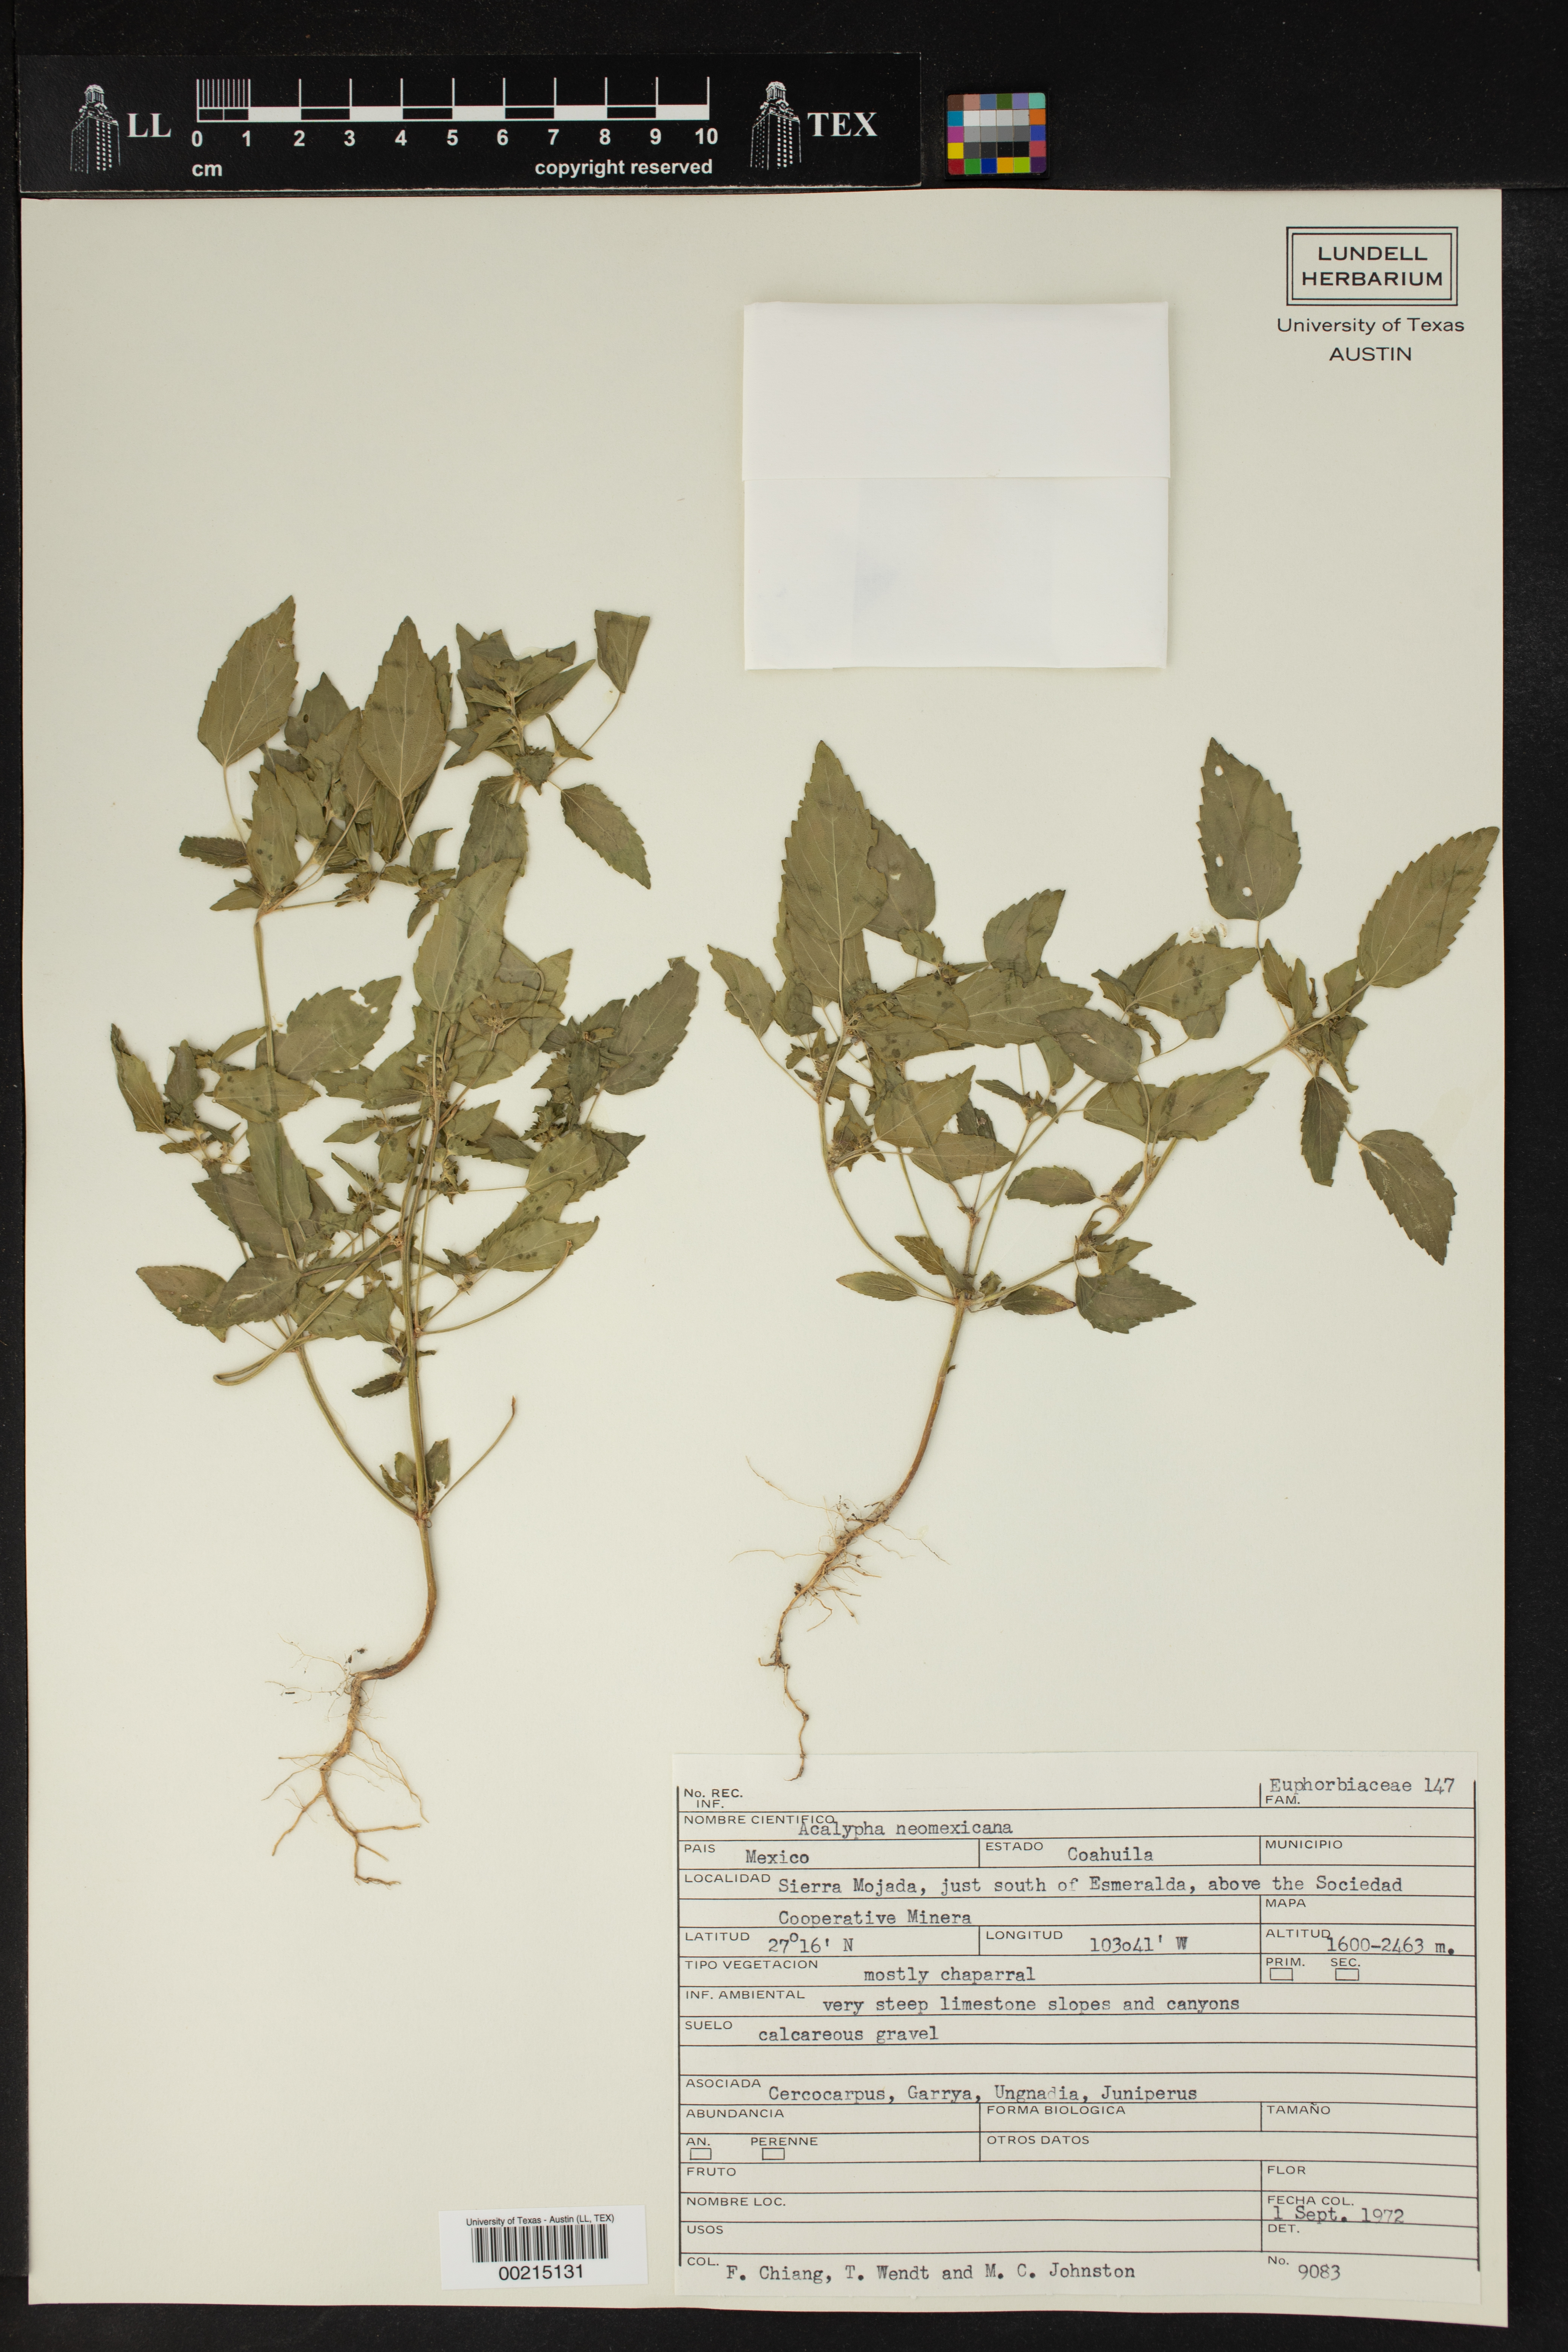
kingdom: Plantae
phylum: Tracheophyta
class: Magnoliopsida
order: Malpighiales
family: Euphorbiaceae
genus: Acalypha
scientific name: Acalypha neomexicana
